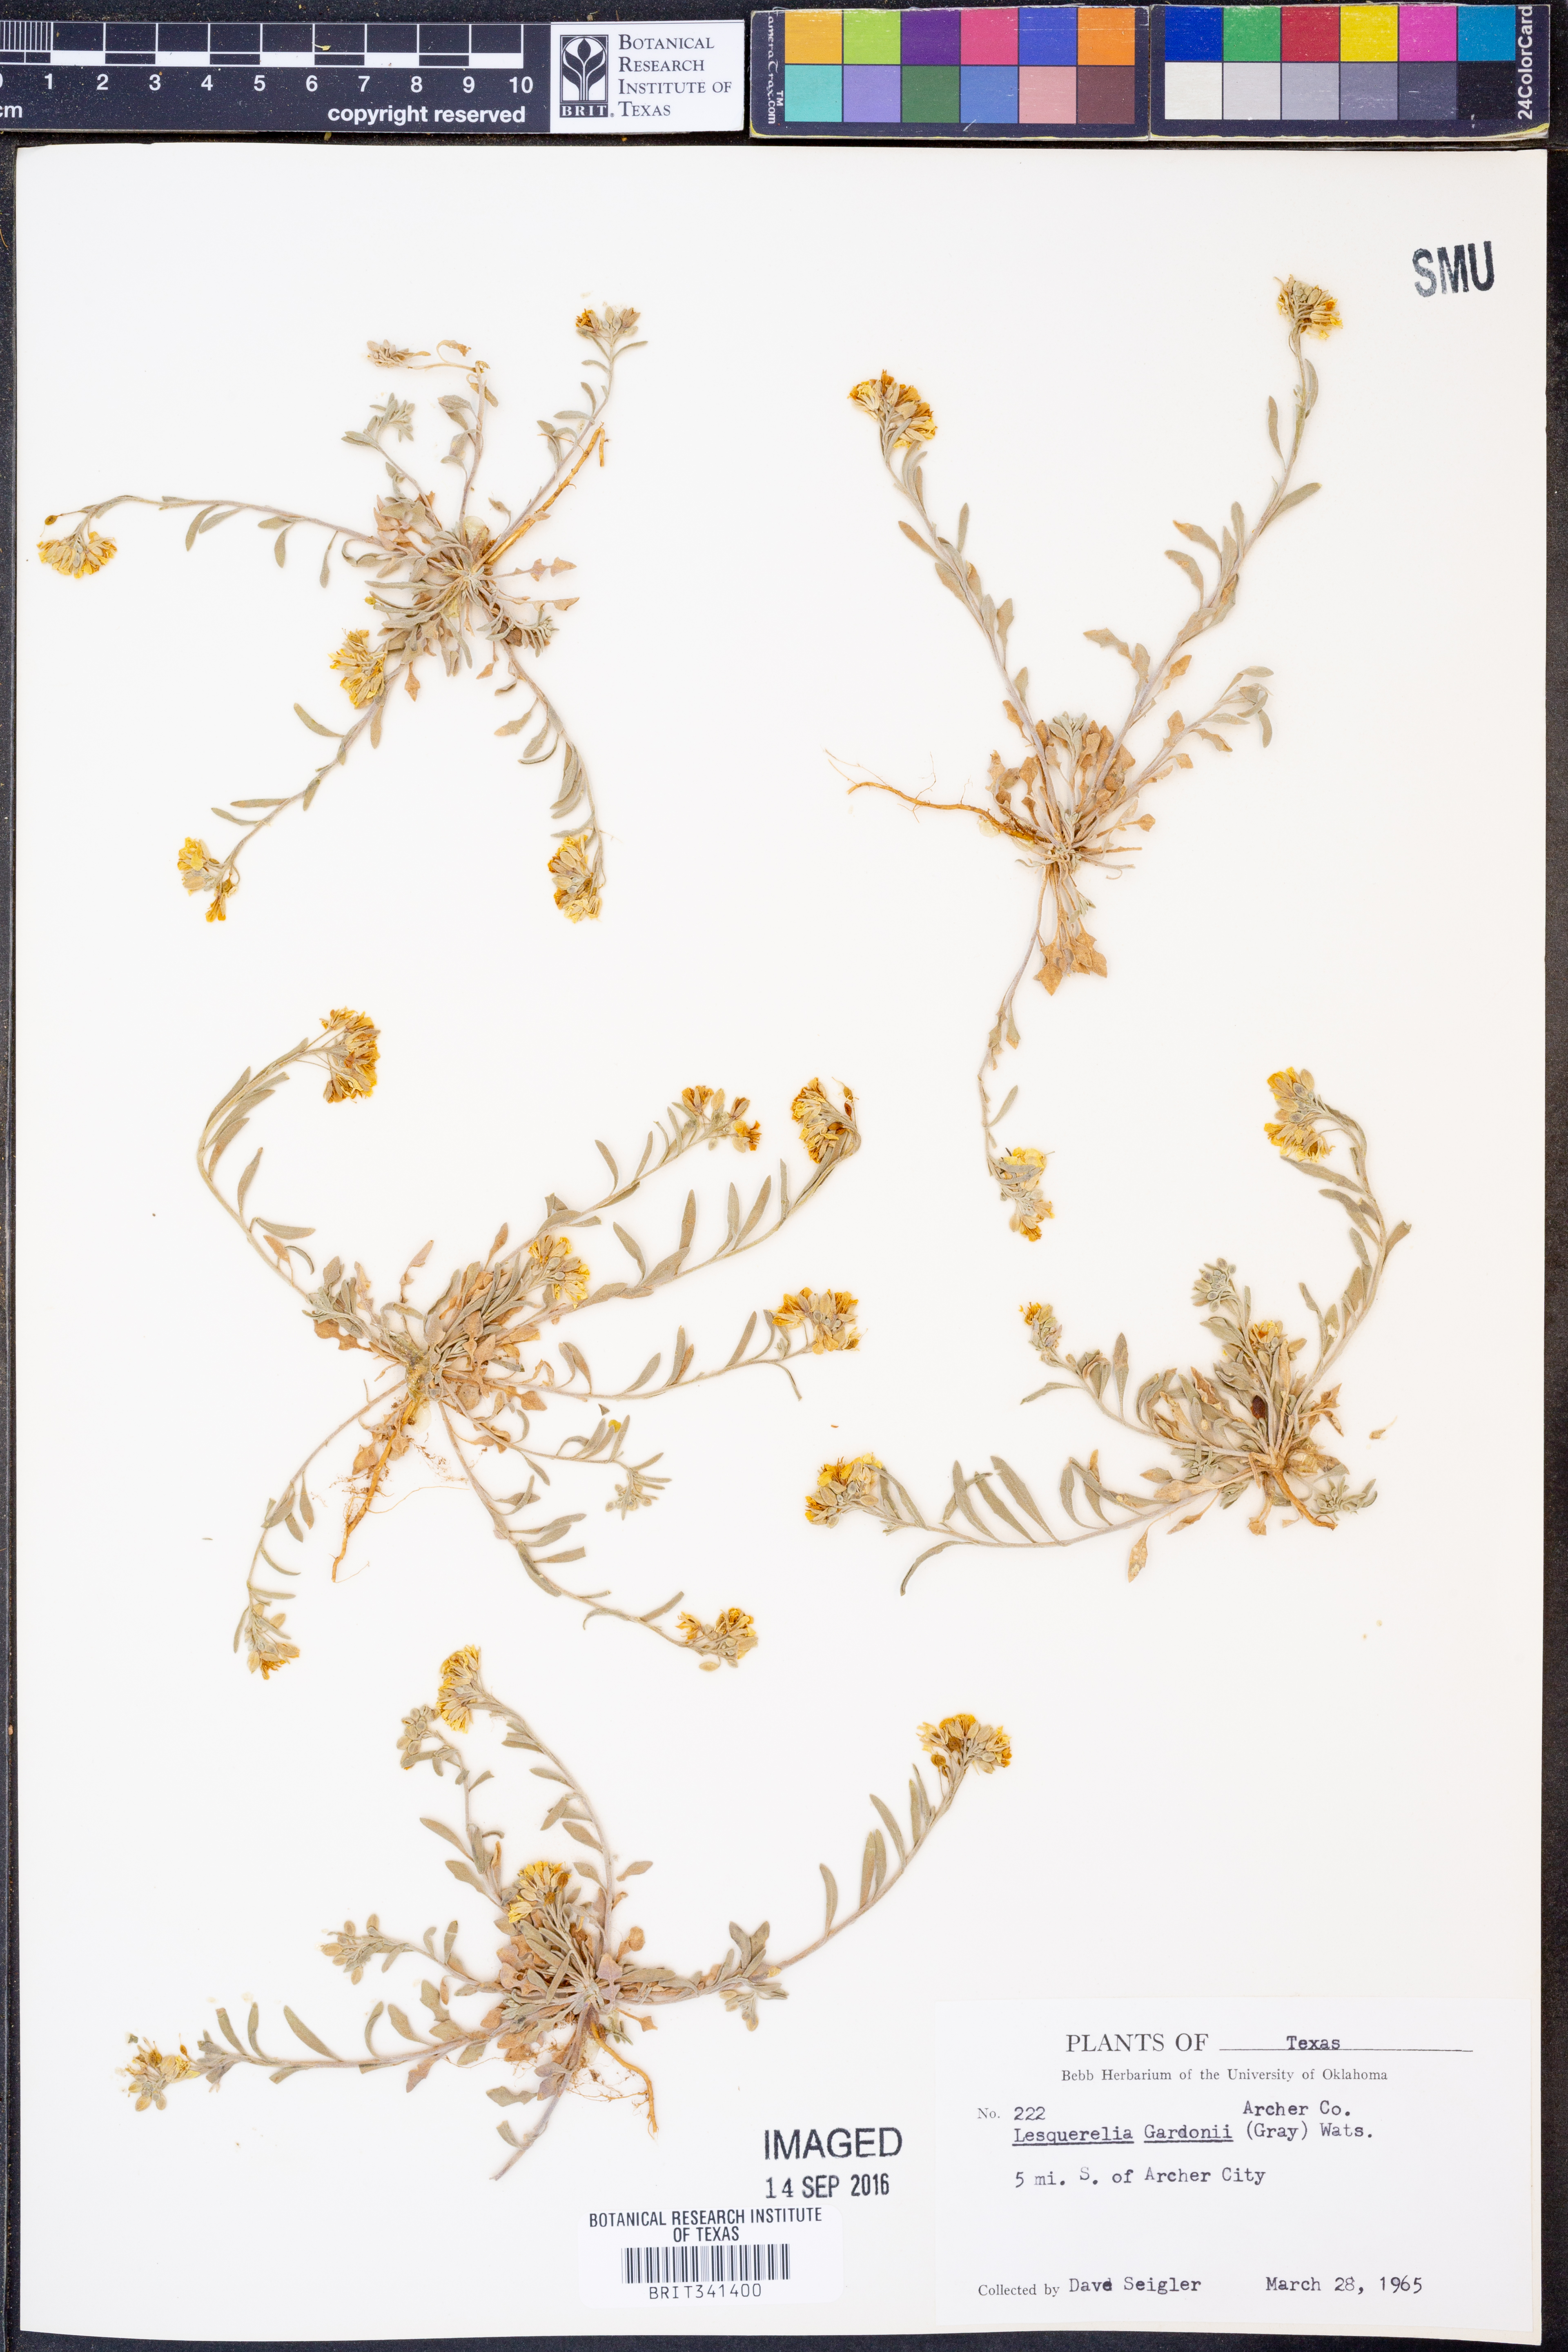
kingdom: Plantae
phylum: Tracheophyta
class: Magnoliopsida
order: Brassicales
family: Brassicaceae
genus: Physaria
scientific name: Physaria gordonii
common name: Gordon's bladderpod
